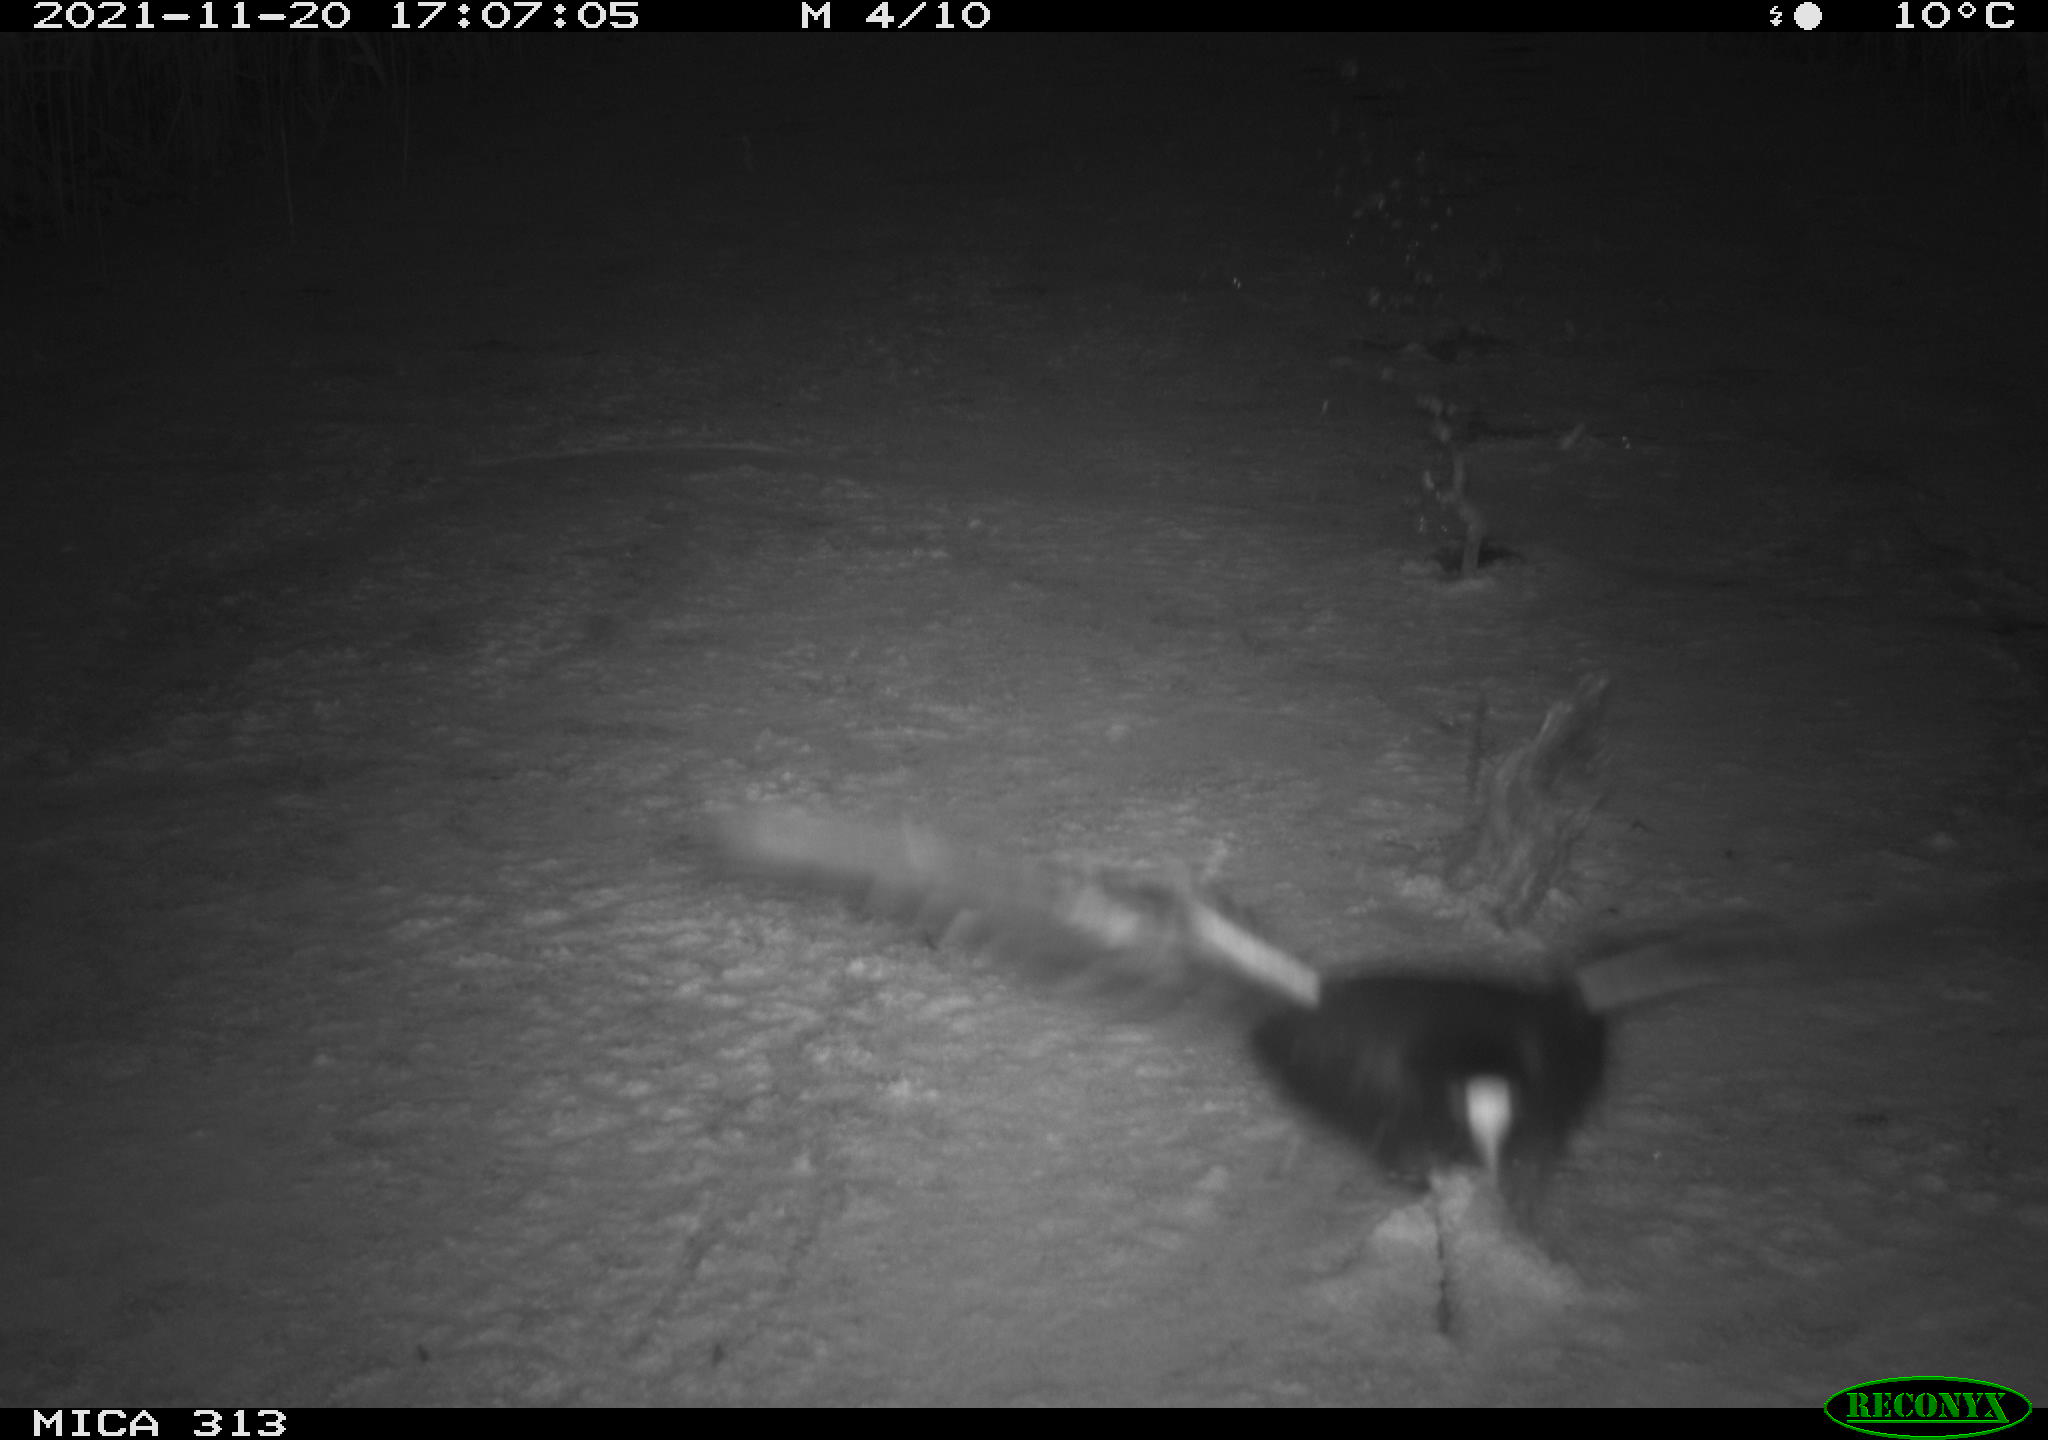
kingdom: Animalia
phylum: Chordata
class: Aves
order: Gruiformes
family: Rallidae
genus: Fulica
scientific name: Fulica atra
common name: Eurasian coot
